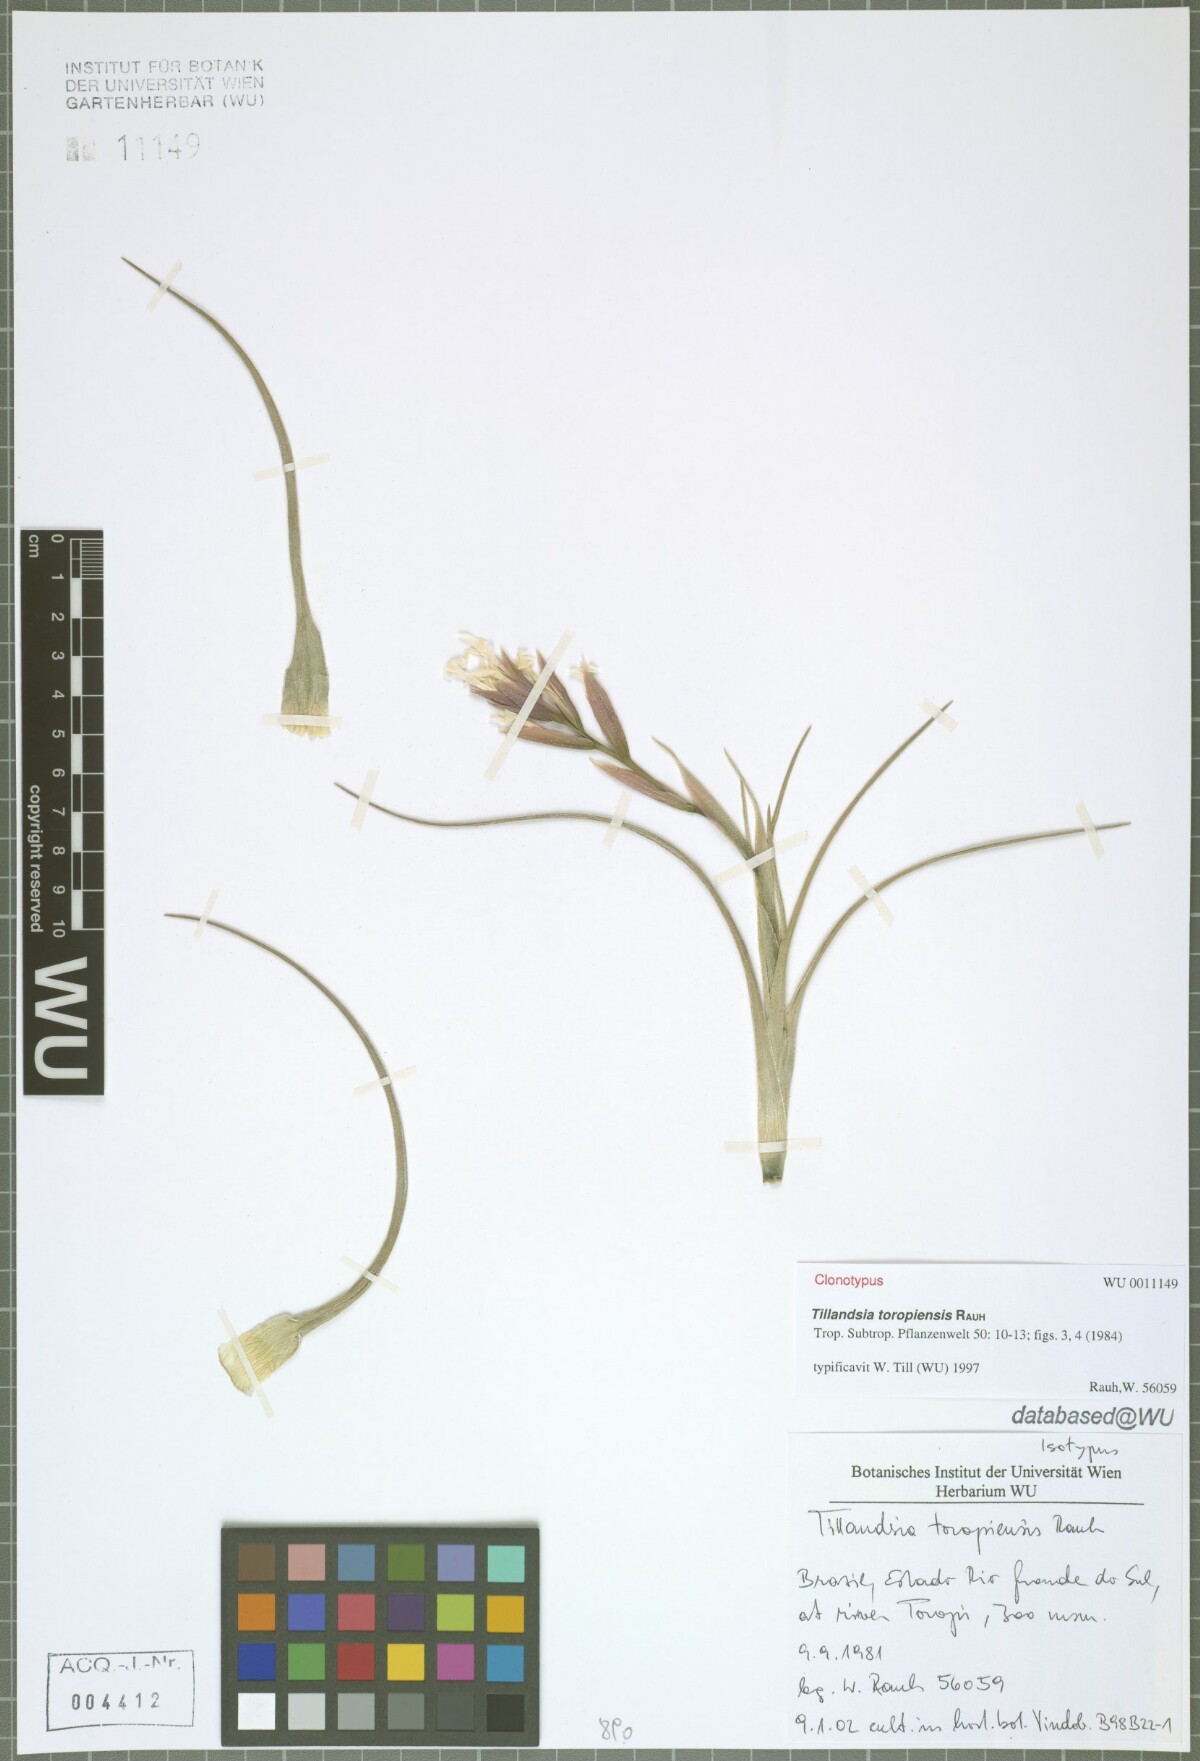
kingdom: Plantae
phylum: Tracheophyta
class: Liliopsida
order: Poales
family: Bromeliaceae
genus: Tillandsia
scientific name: Tillandsia toropiensis
